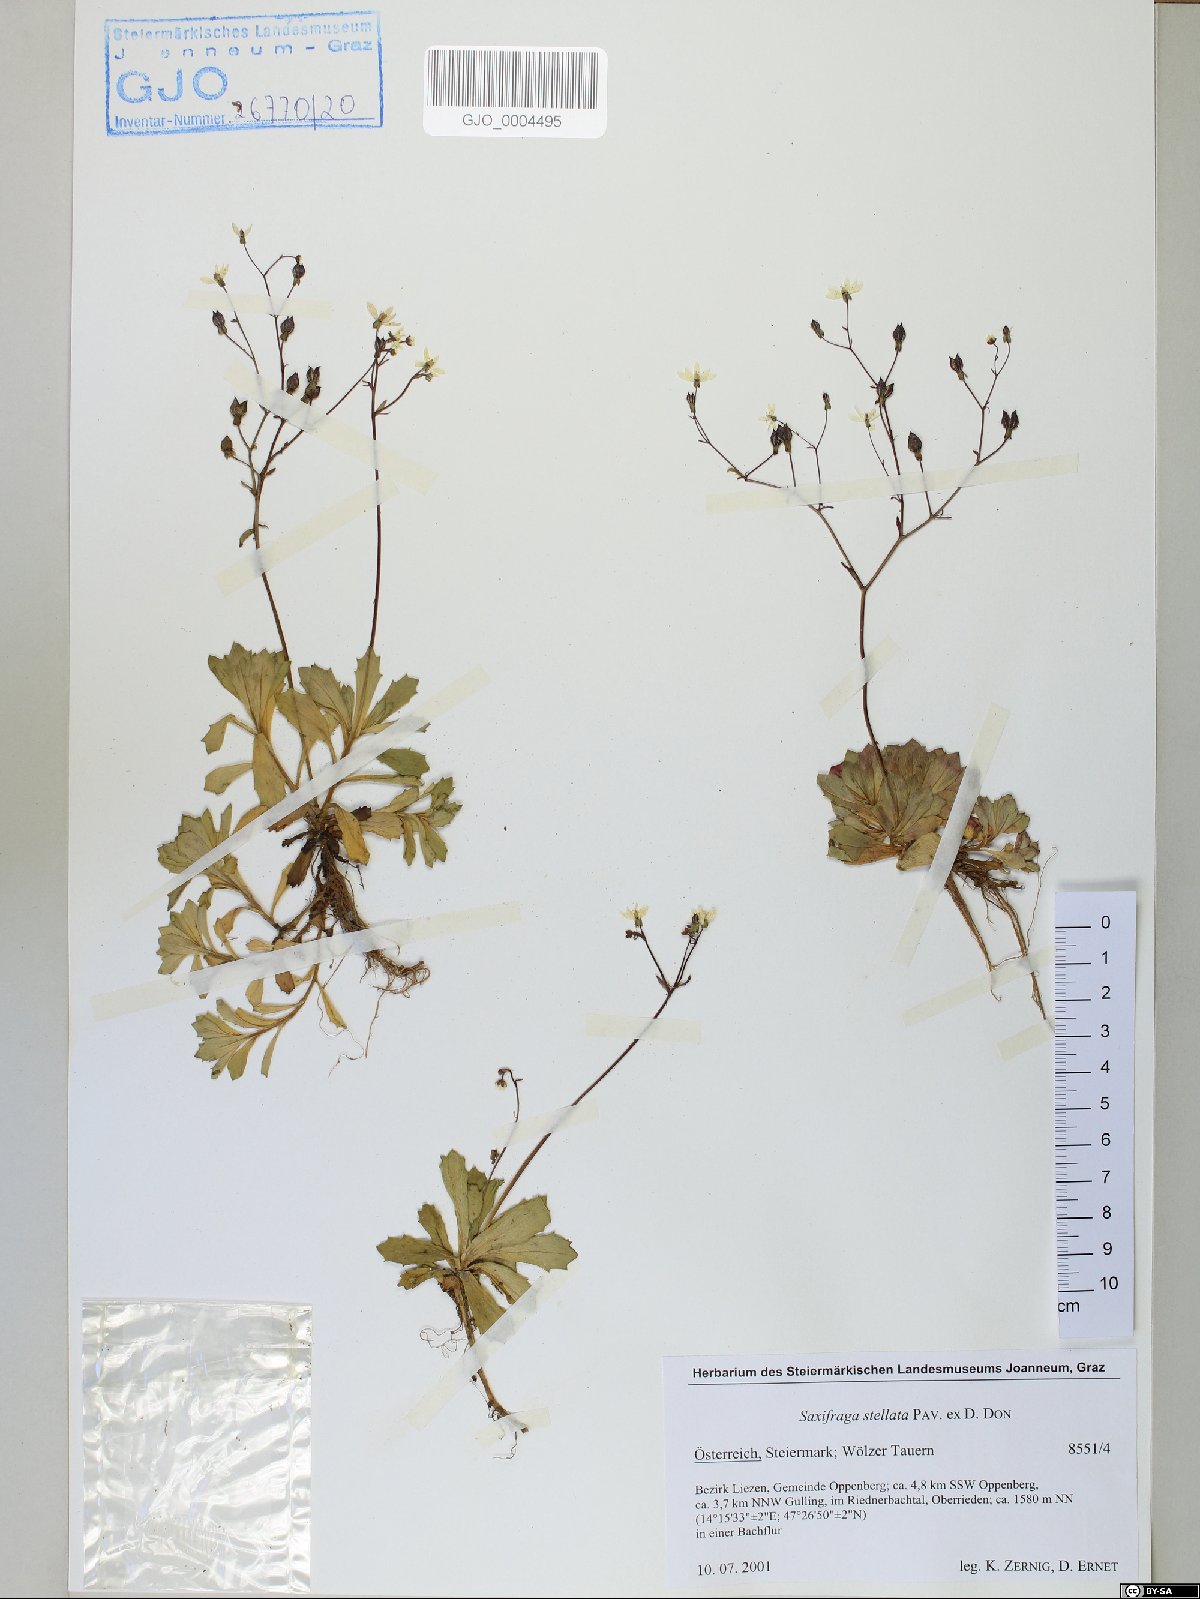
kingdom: Plantae
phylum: Tracheophyta
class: Magnoliopsida
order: Saxifragales
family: Saxifragaceae
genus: Micranthes
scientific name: Micranthes stellaris
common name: Starry saxifrage
